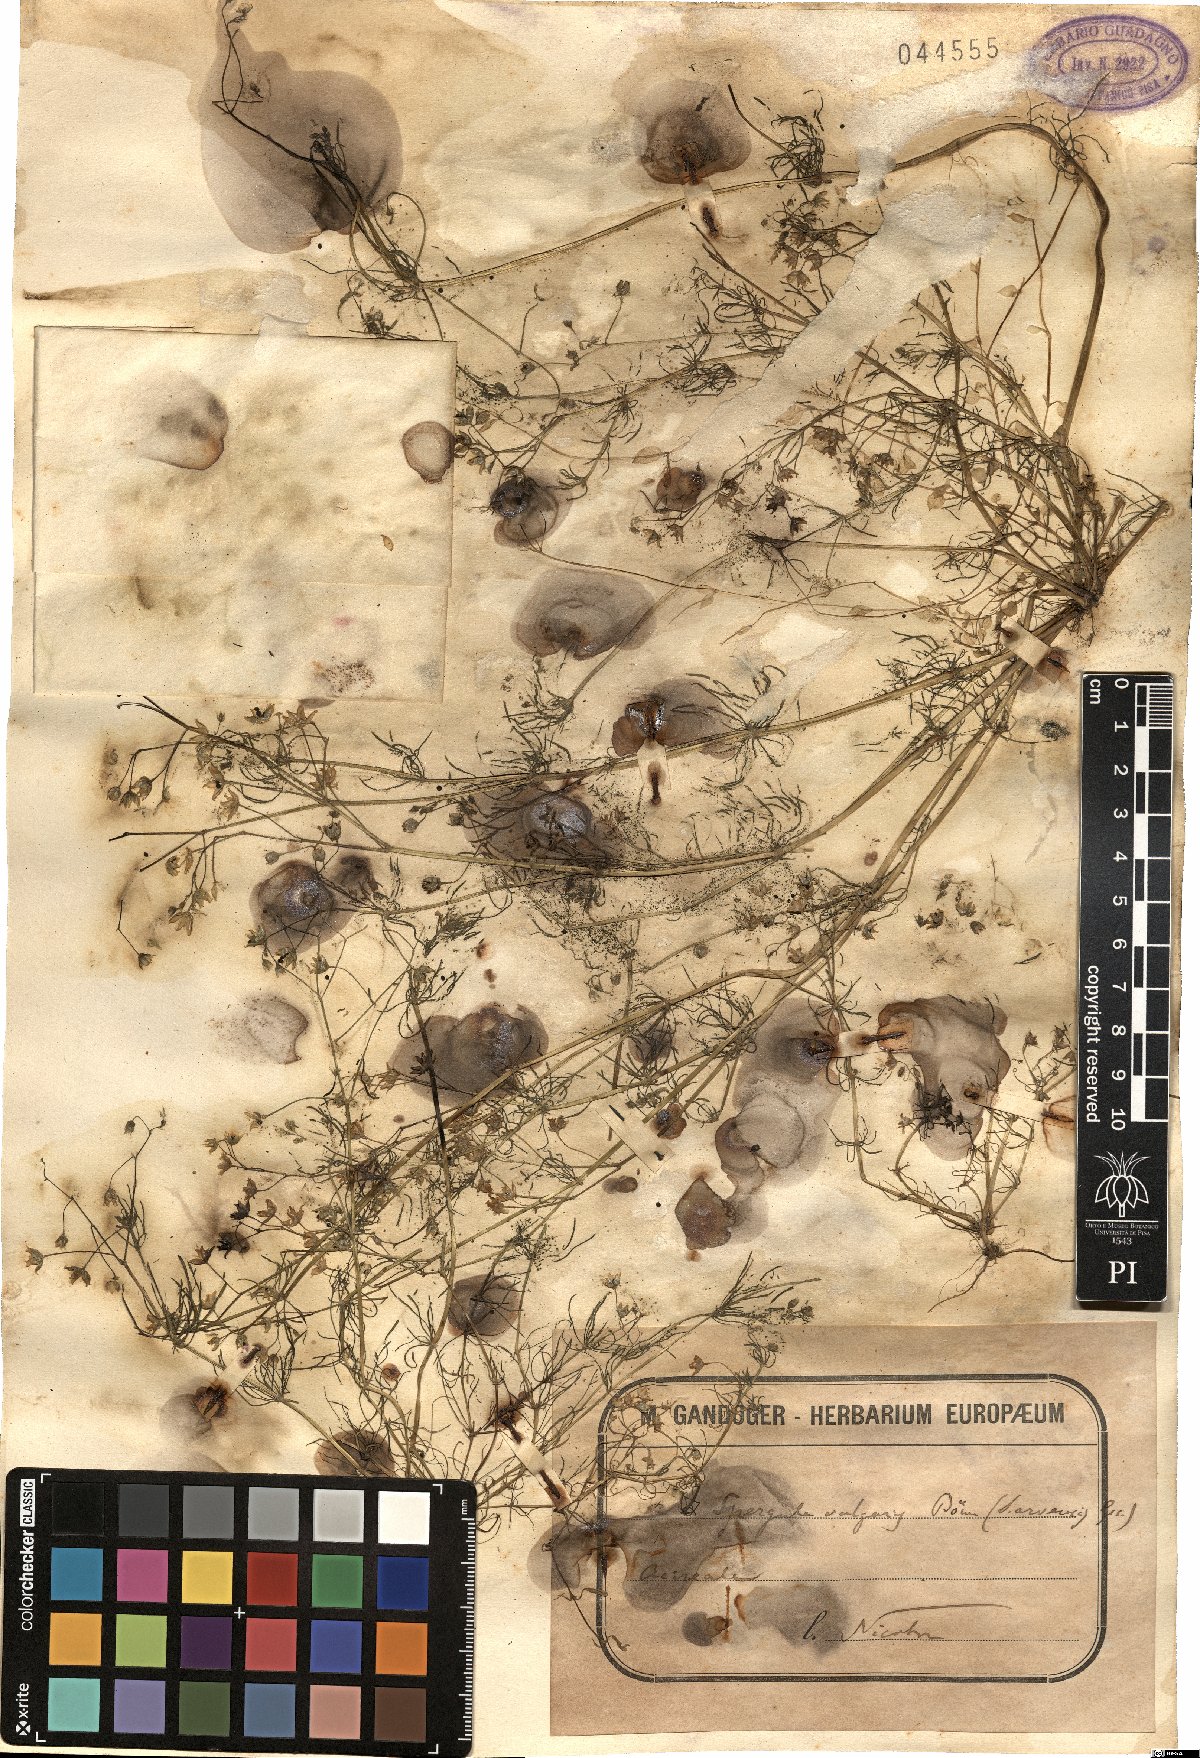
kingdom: Plantae
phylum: Tracheophyta
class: Magnoliopsida
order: Caryophyllales
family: Caryophyllaceae
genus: Spergula
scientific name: Spergula arvensis
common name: Corn spurrey
